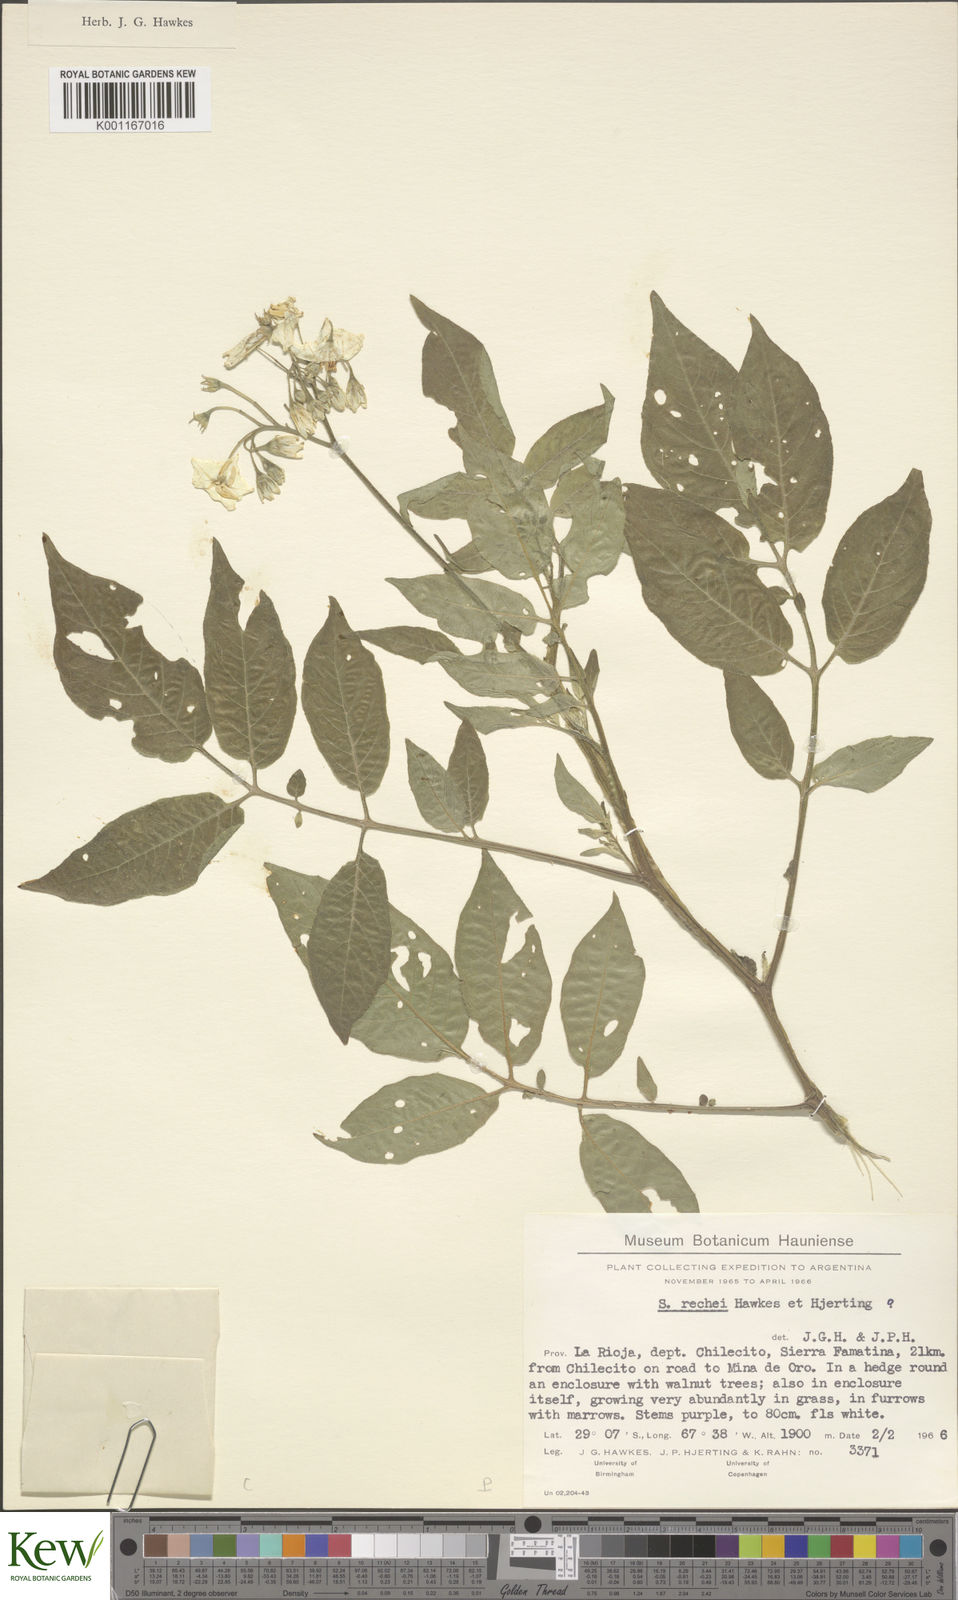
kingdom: Plantae
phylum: Tracheophyta
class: Magnoliopsida
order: Solanales
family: Solanaceae
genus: Solanum
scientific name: Solanum rechei
